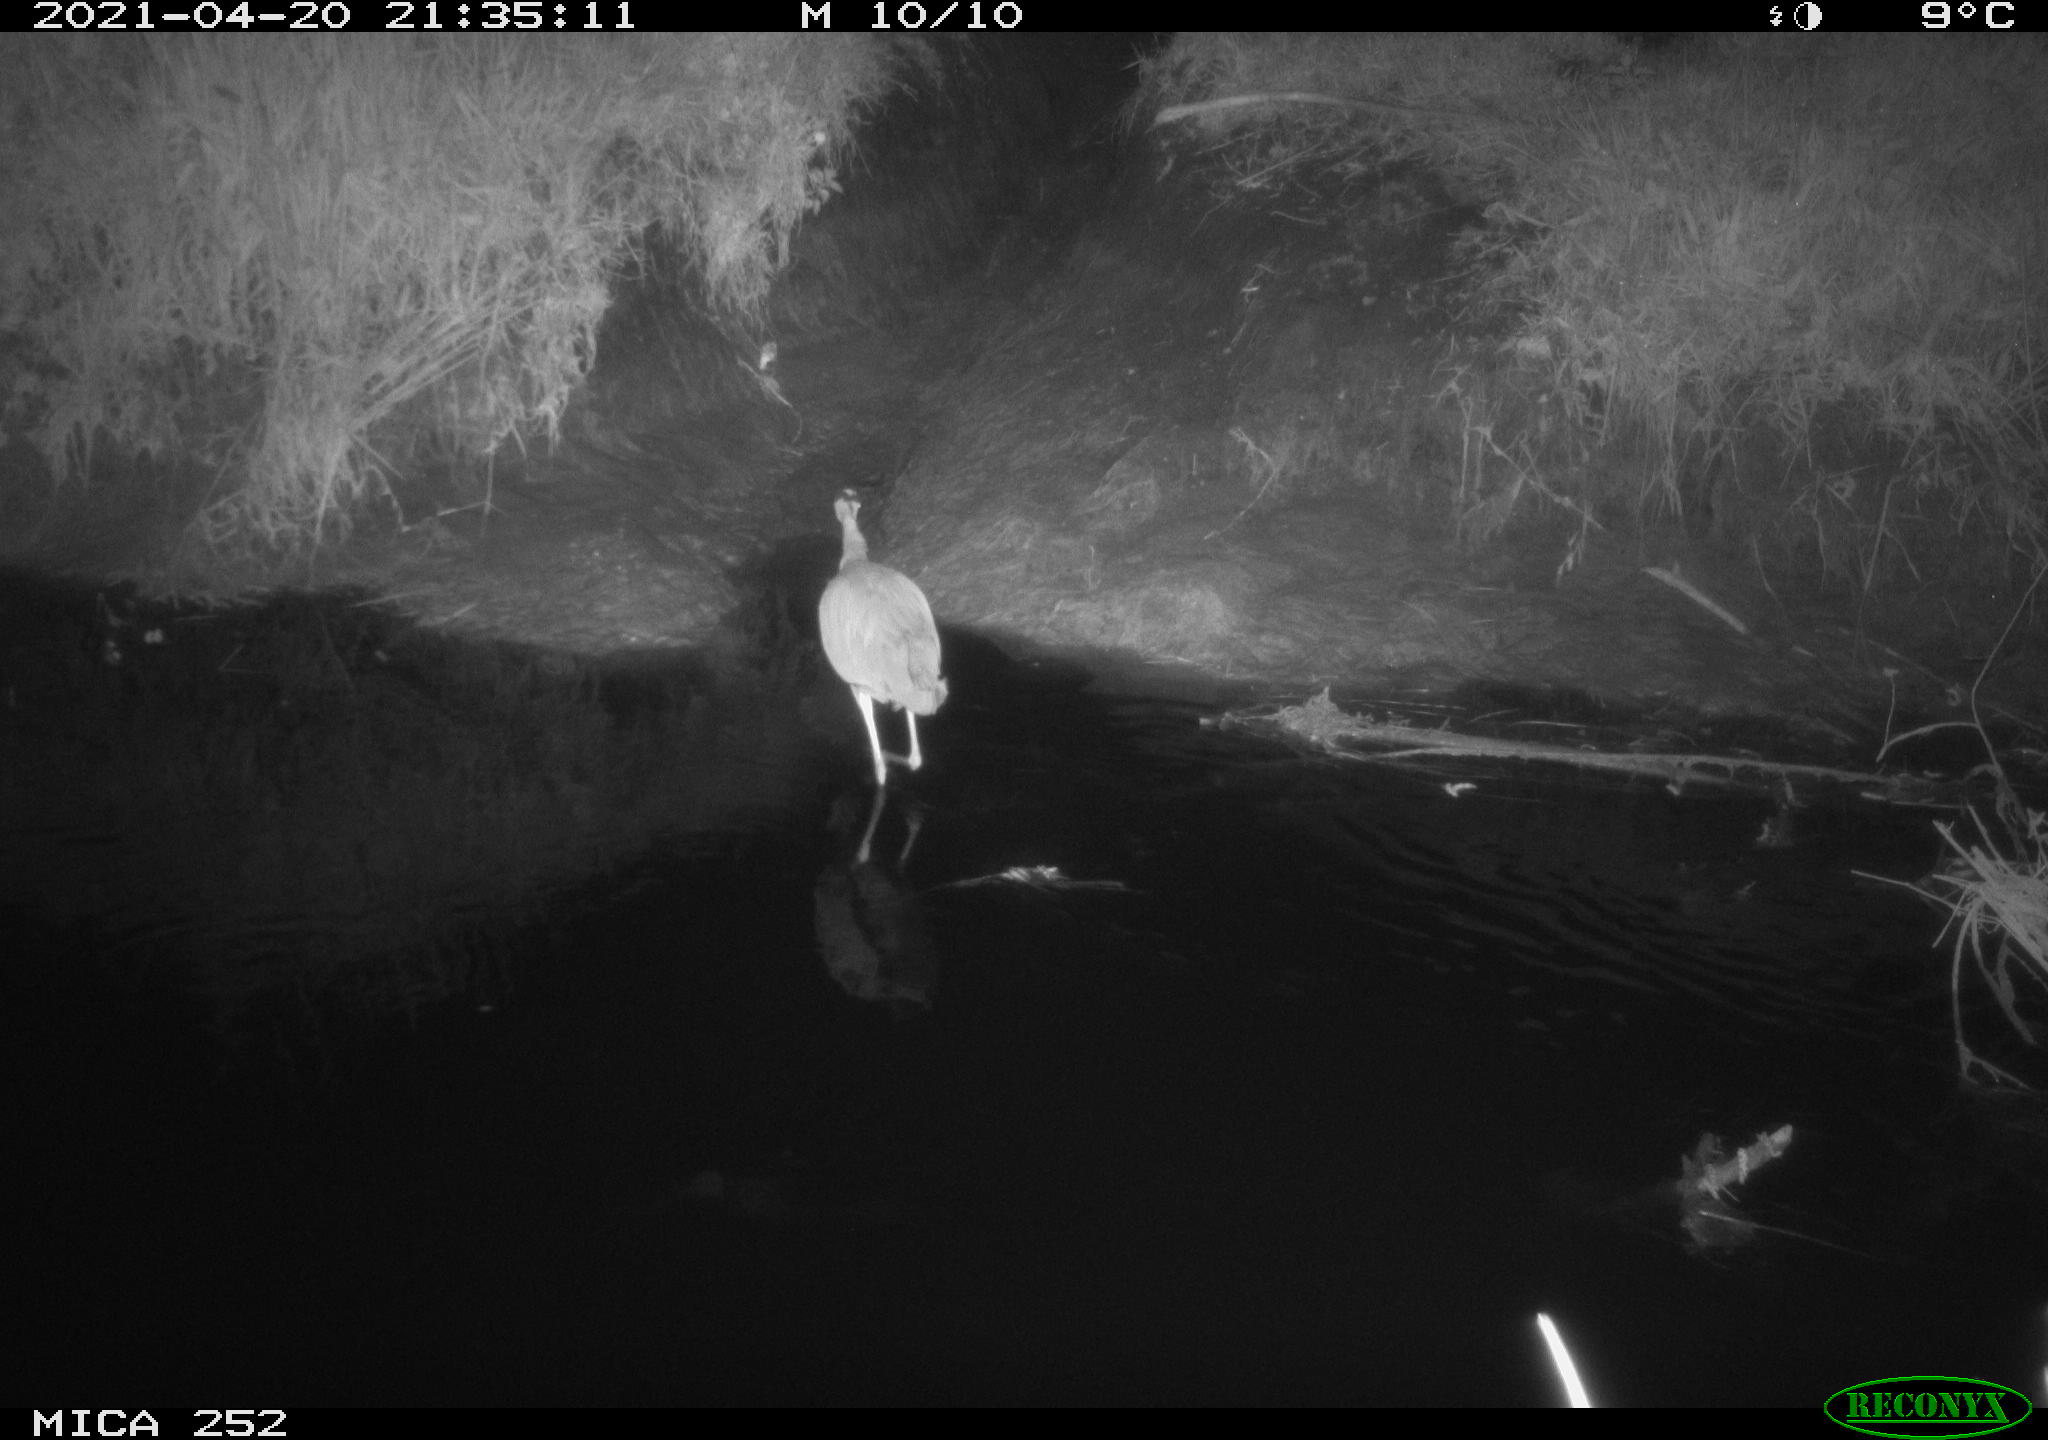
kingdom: Animalia
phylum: Chordata
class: Aves
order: Pelecaniformes
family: Ardeidae
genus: Ardea
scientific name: Ardea
